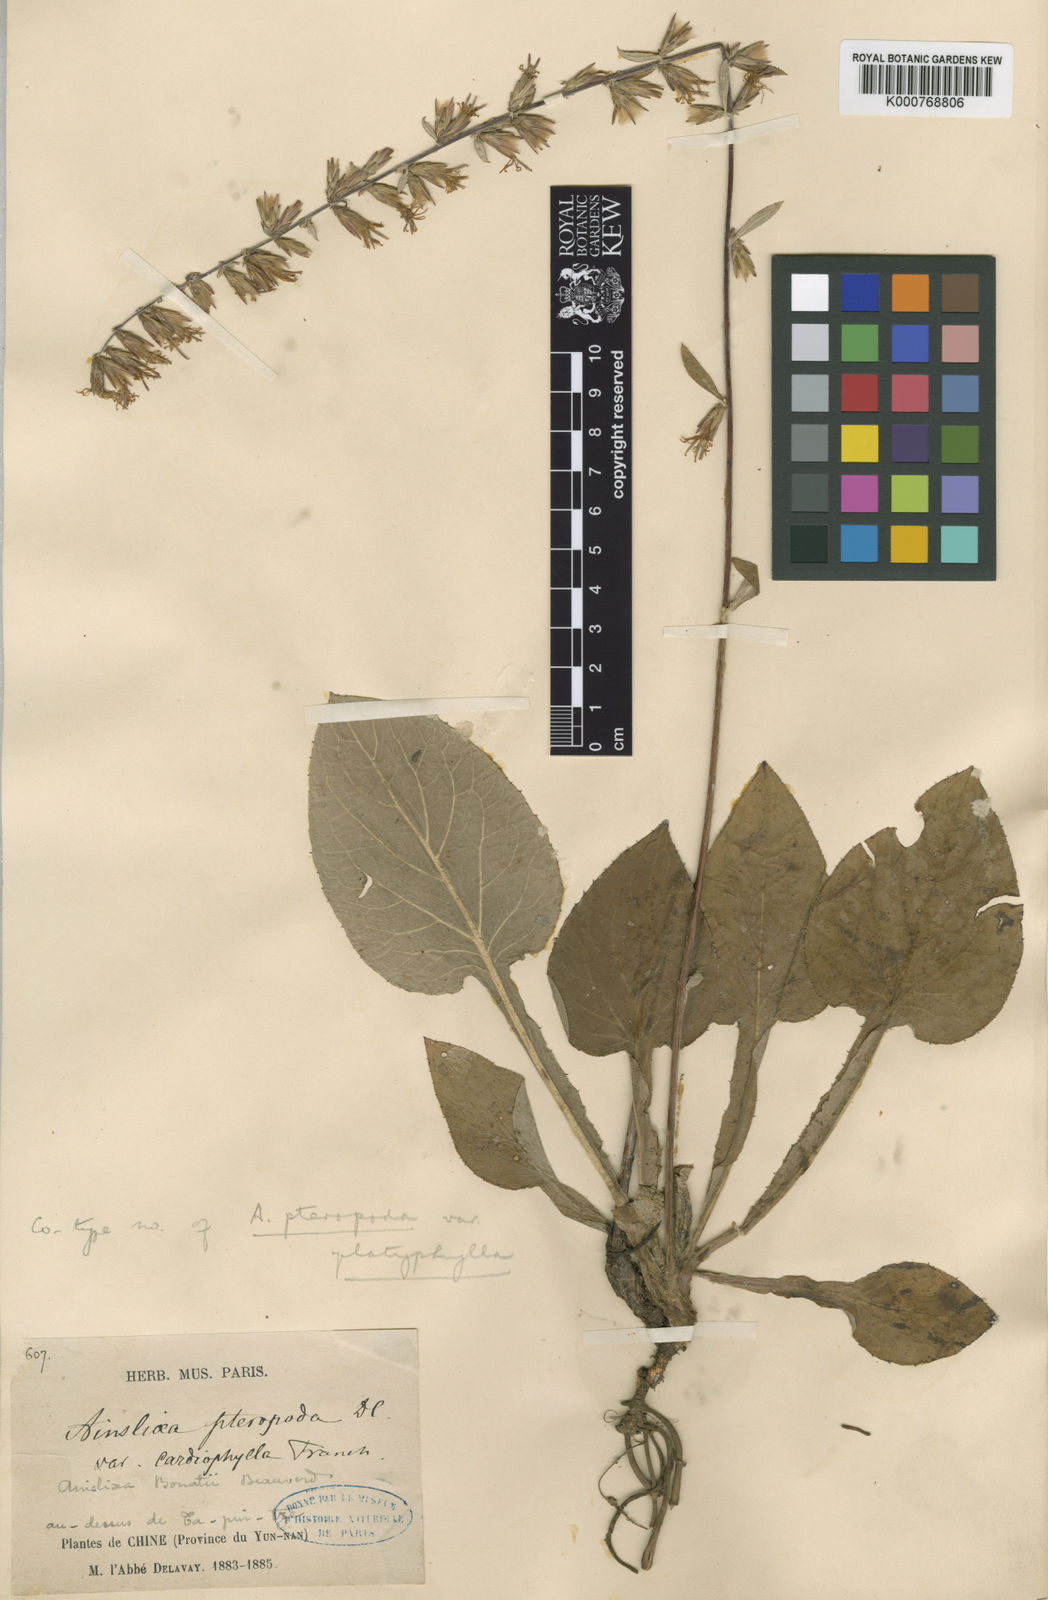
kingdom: Plantae
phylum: Tracheophyta
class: Magnoliopsida
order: Asterales
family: Asteraceae
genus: Ainsliaea
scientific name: Ainsliaea bonatii
